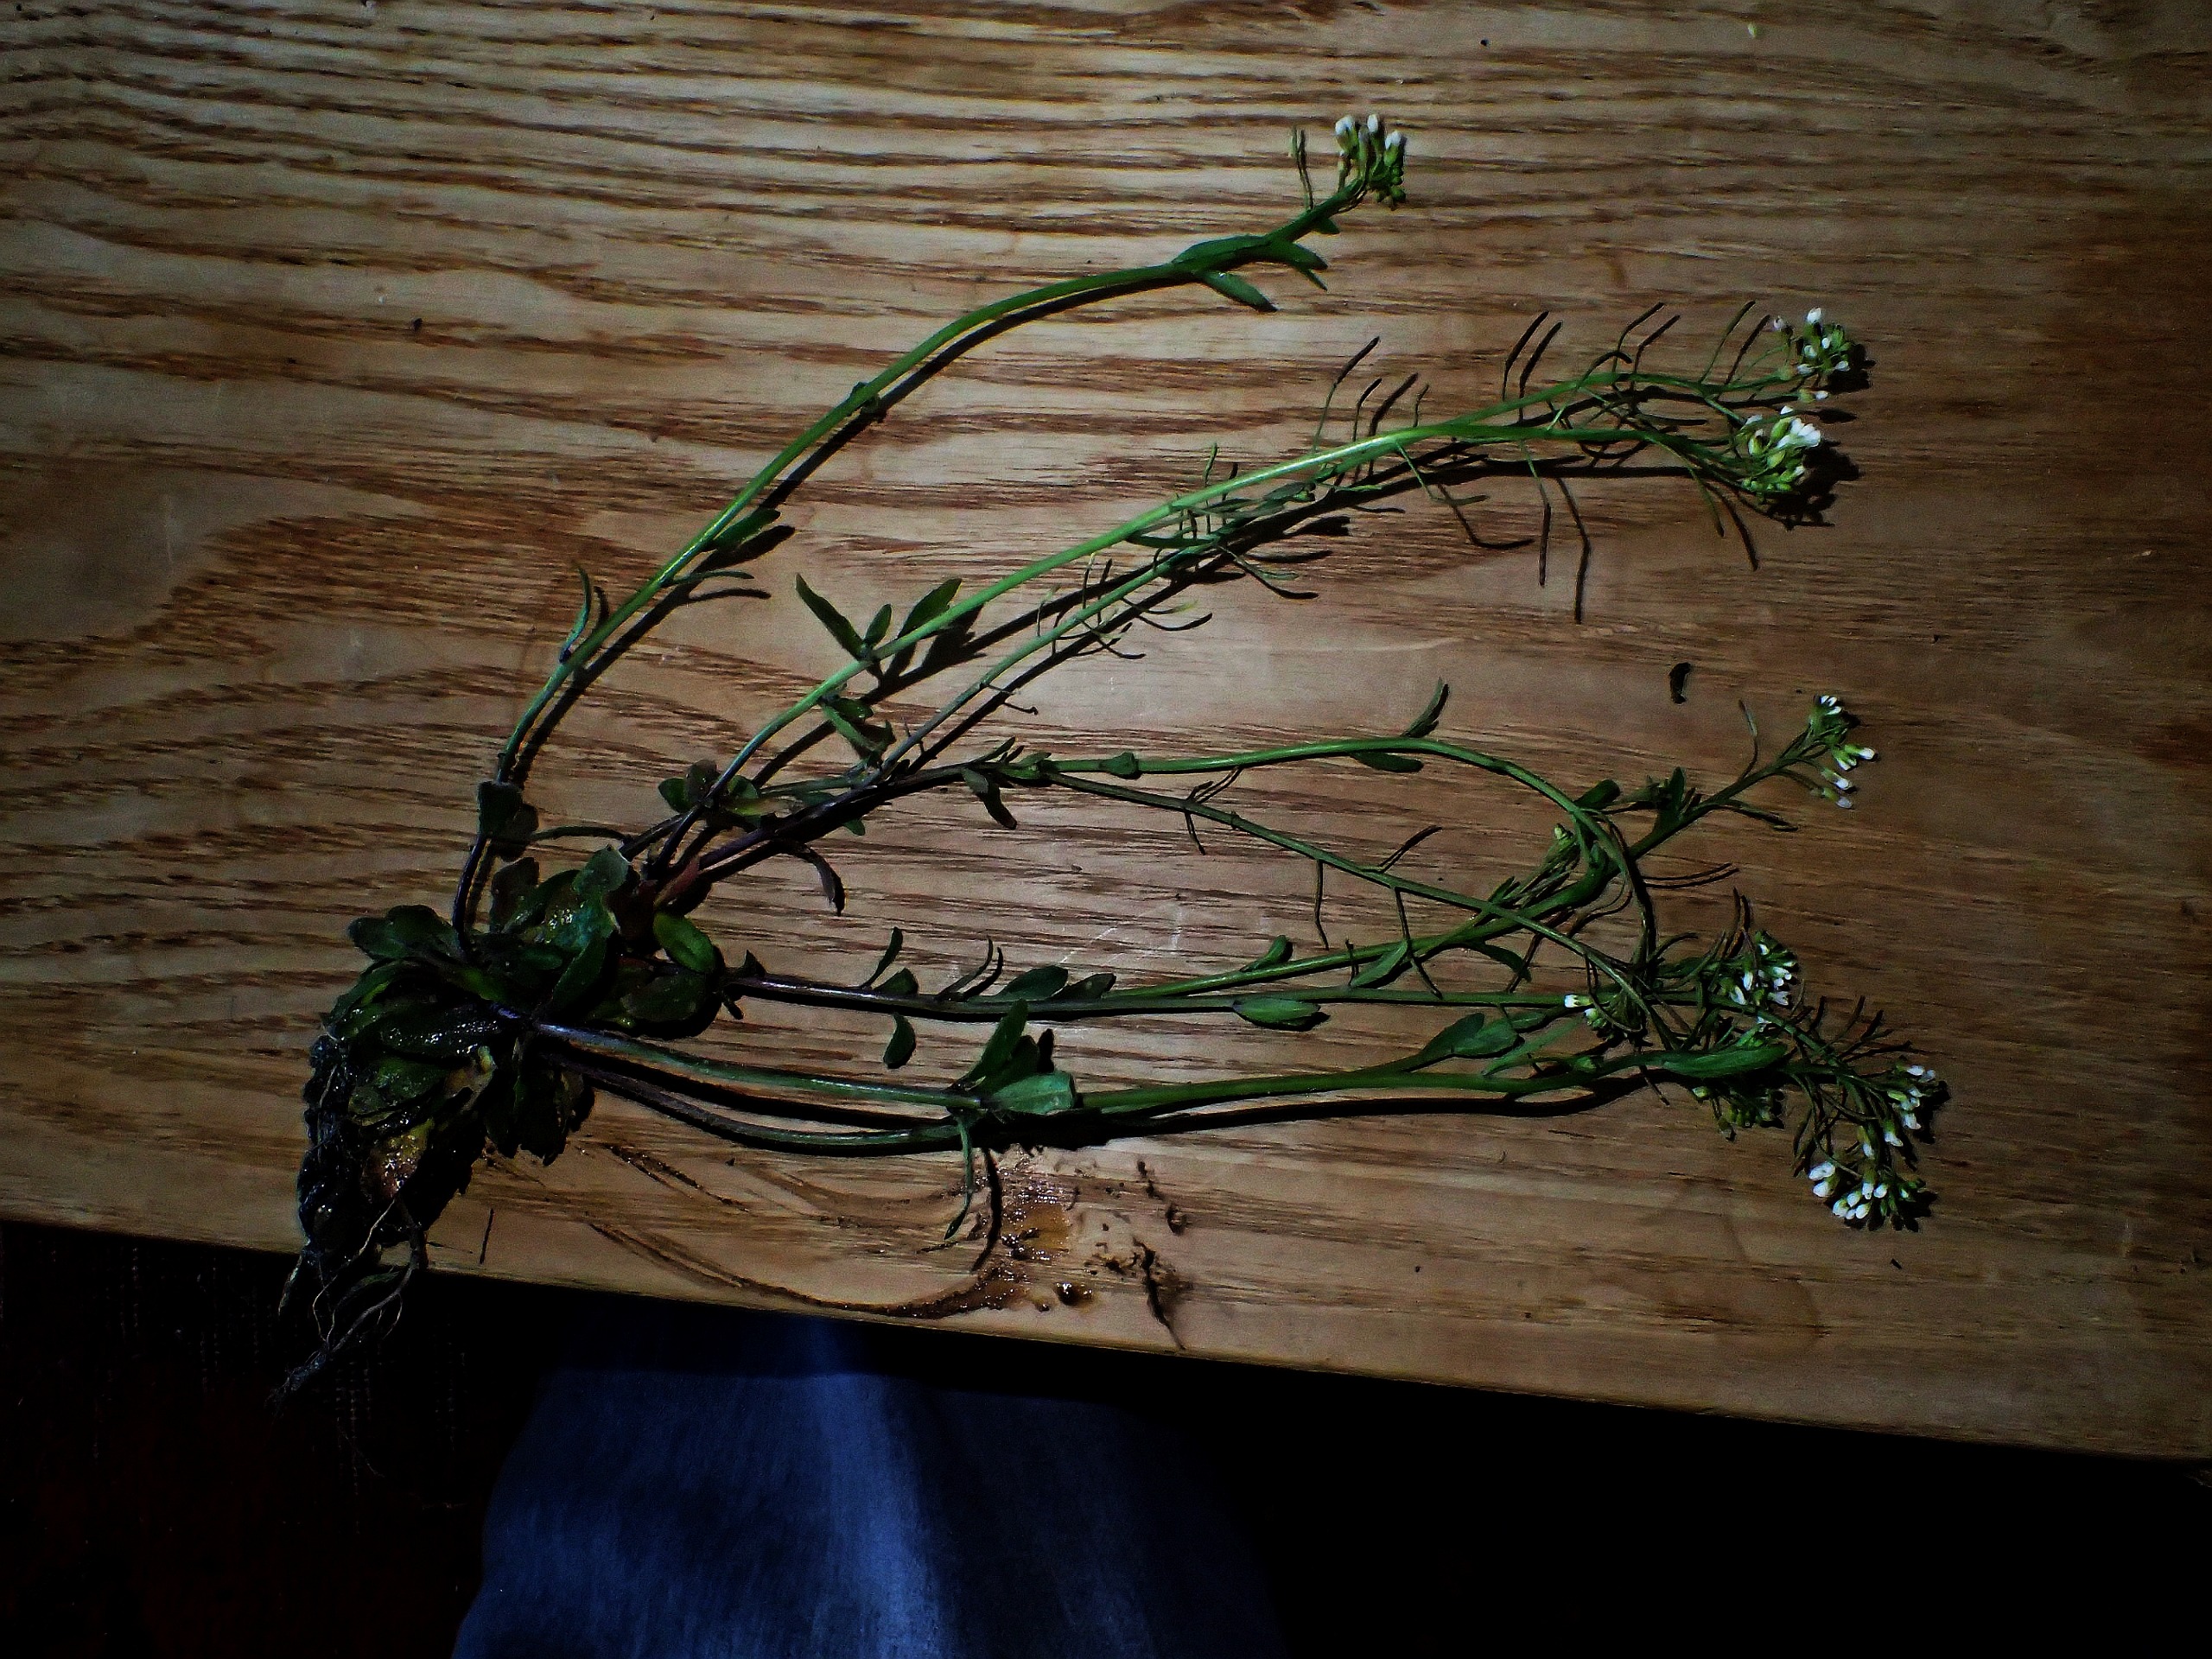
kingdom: Plantae
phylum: Tracheophyta
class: Magnoliopsida
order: Brassicales
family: Brassicaceae
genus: Arabidopsis
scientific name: Arabidopsis thaliana
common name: Almindelig gåsemad
